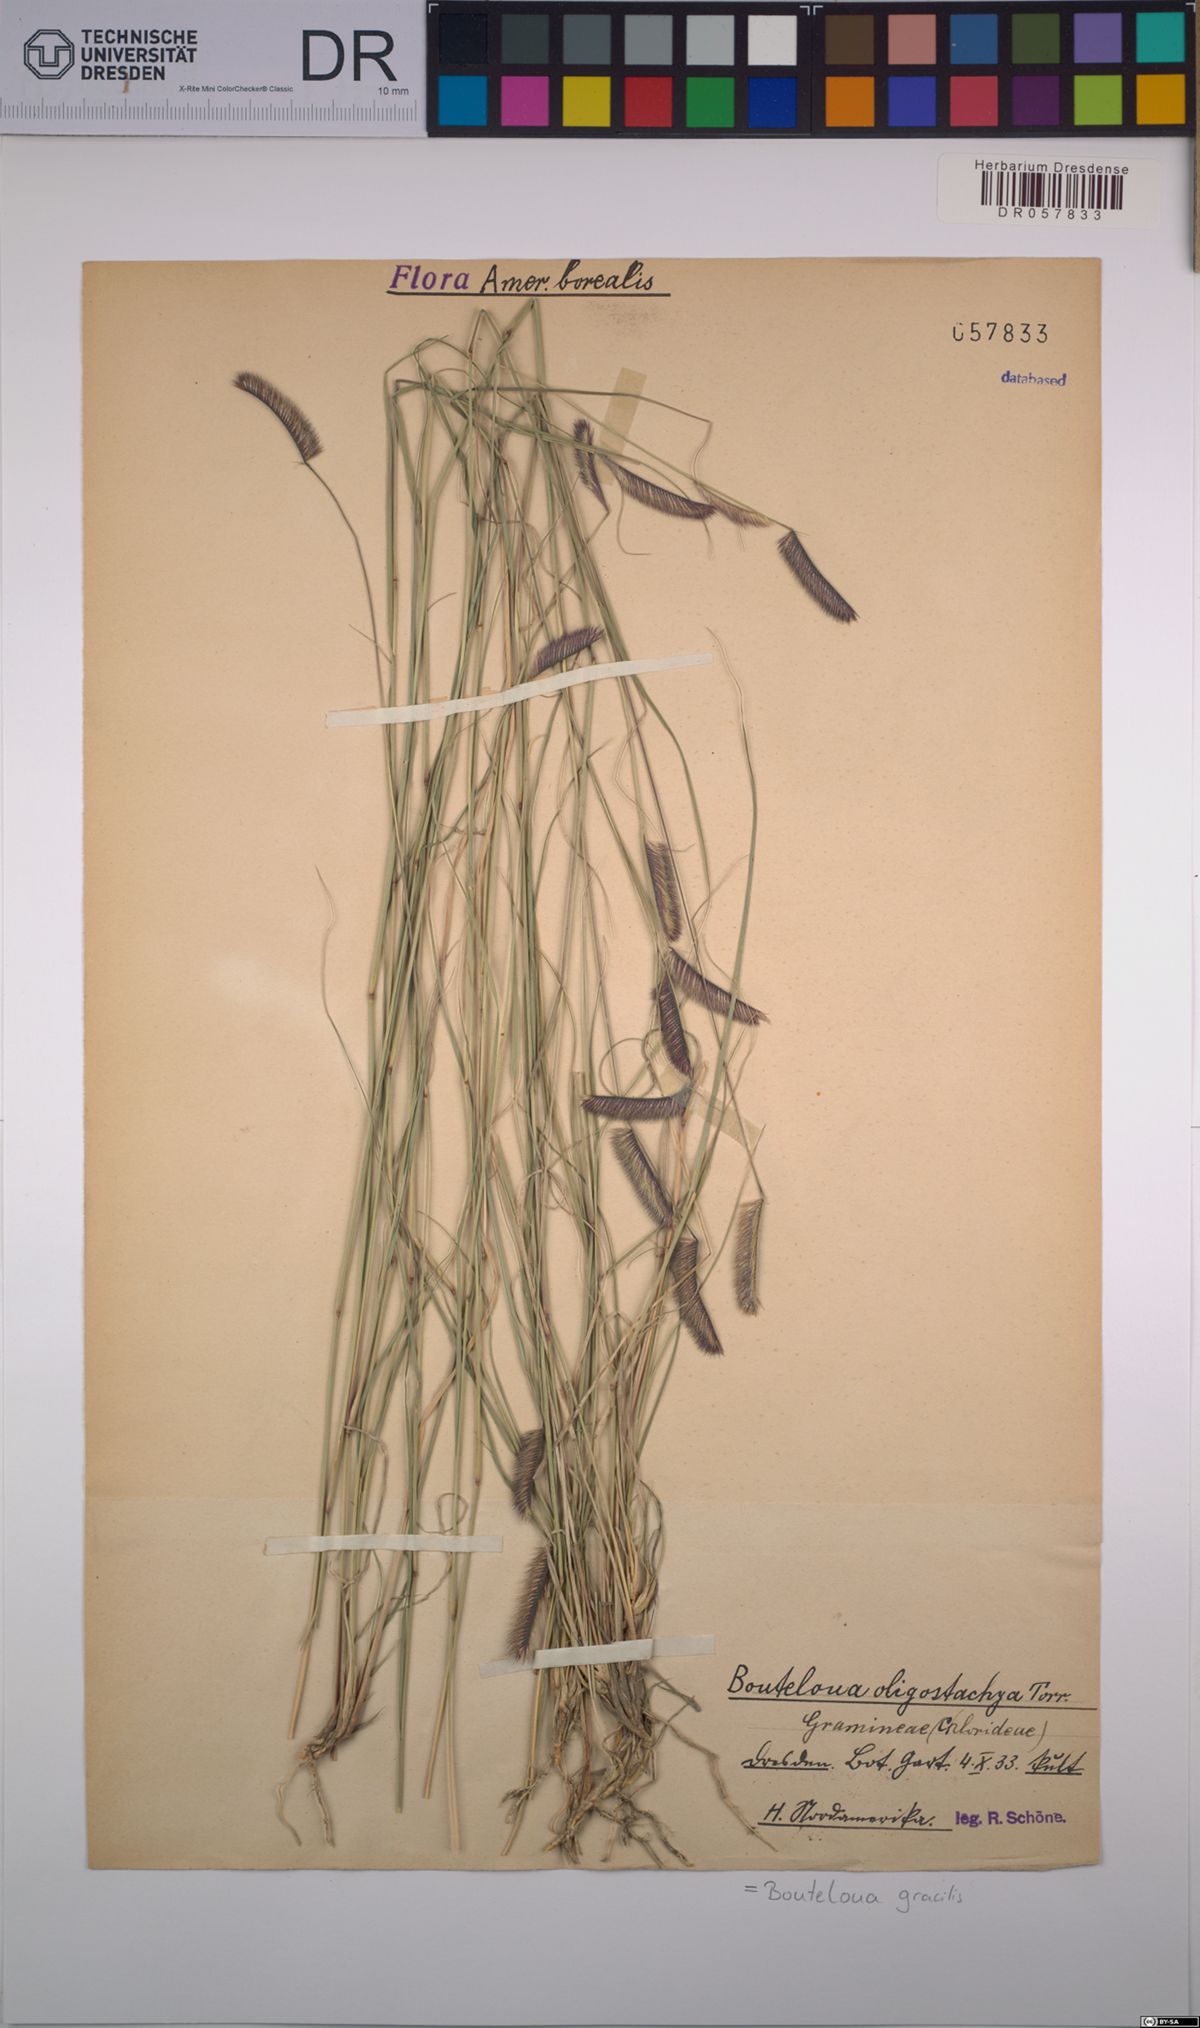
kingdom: Plantae
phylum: Tracheophyta
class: Liliopsida
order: Poales
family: Poaceae
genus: Bouteloua
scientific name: Bouteloua gracilis
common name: Blue grama
